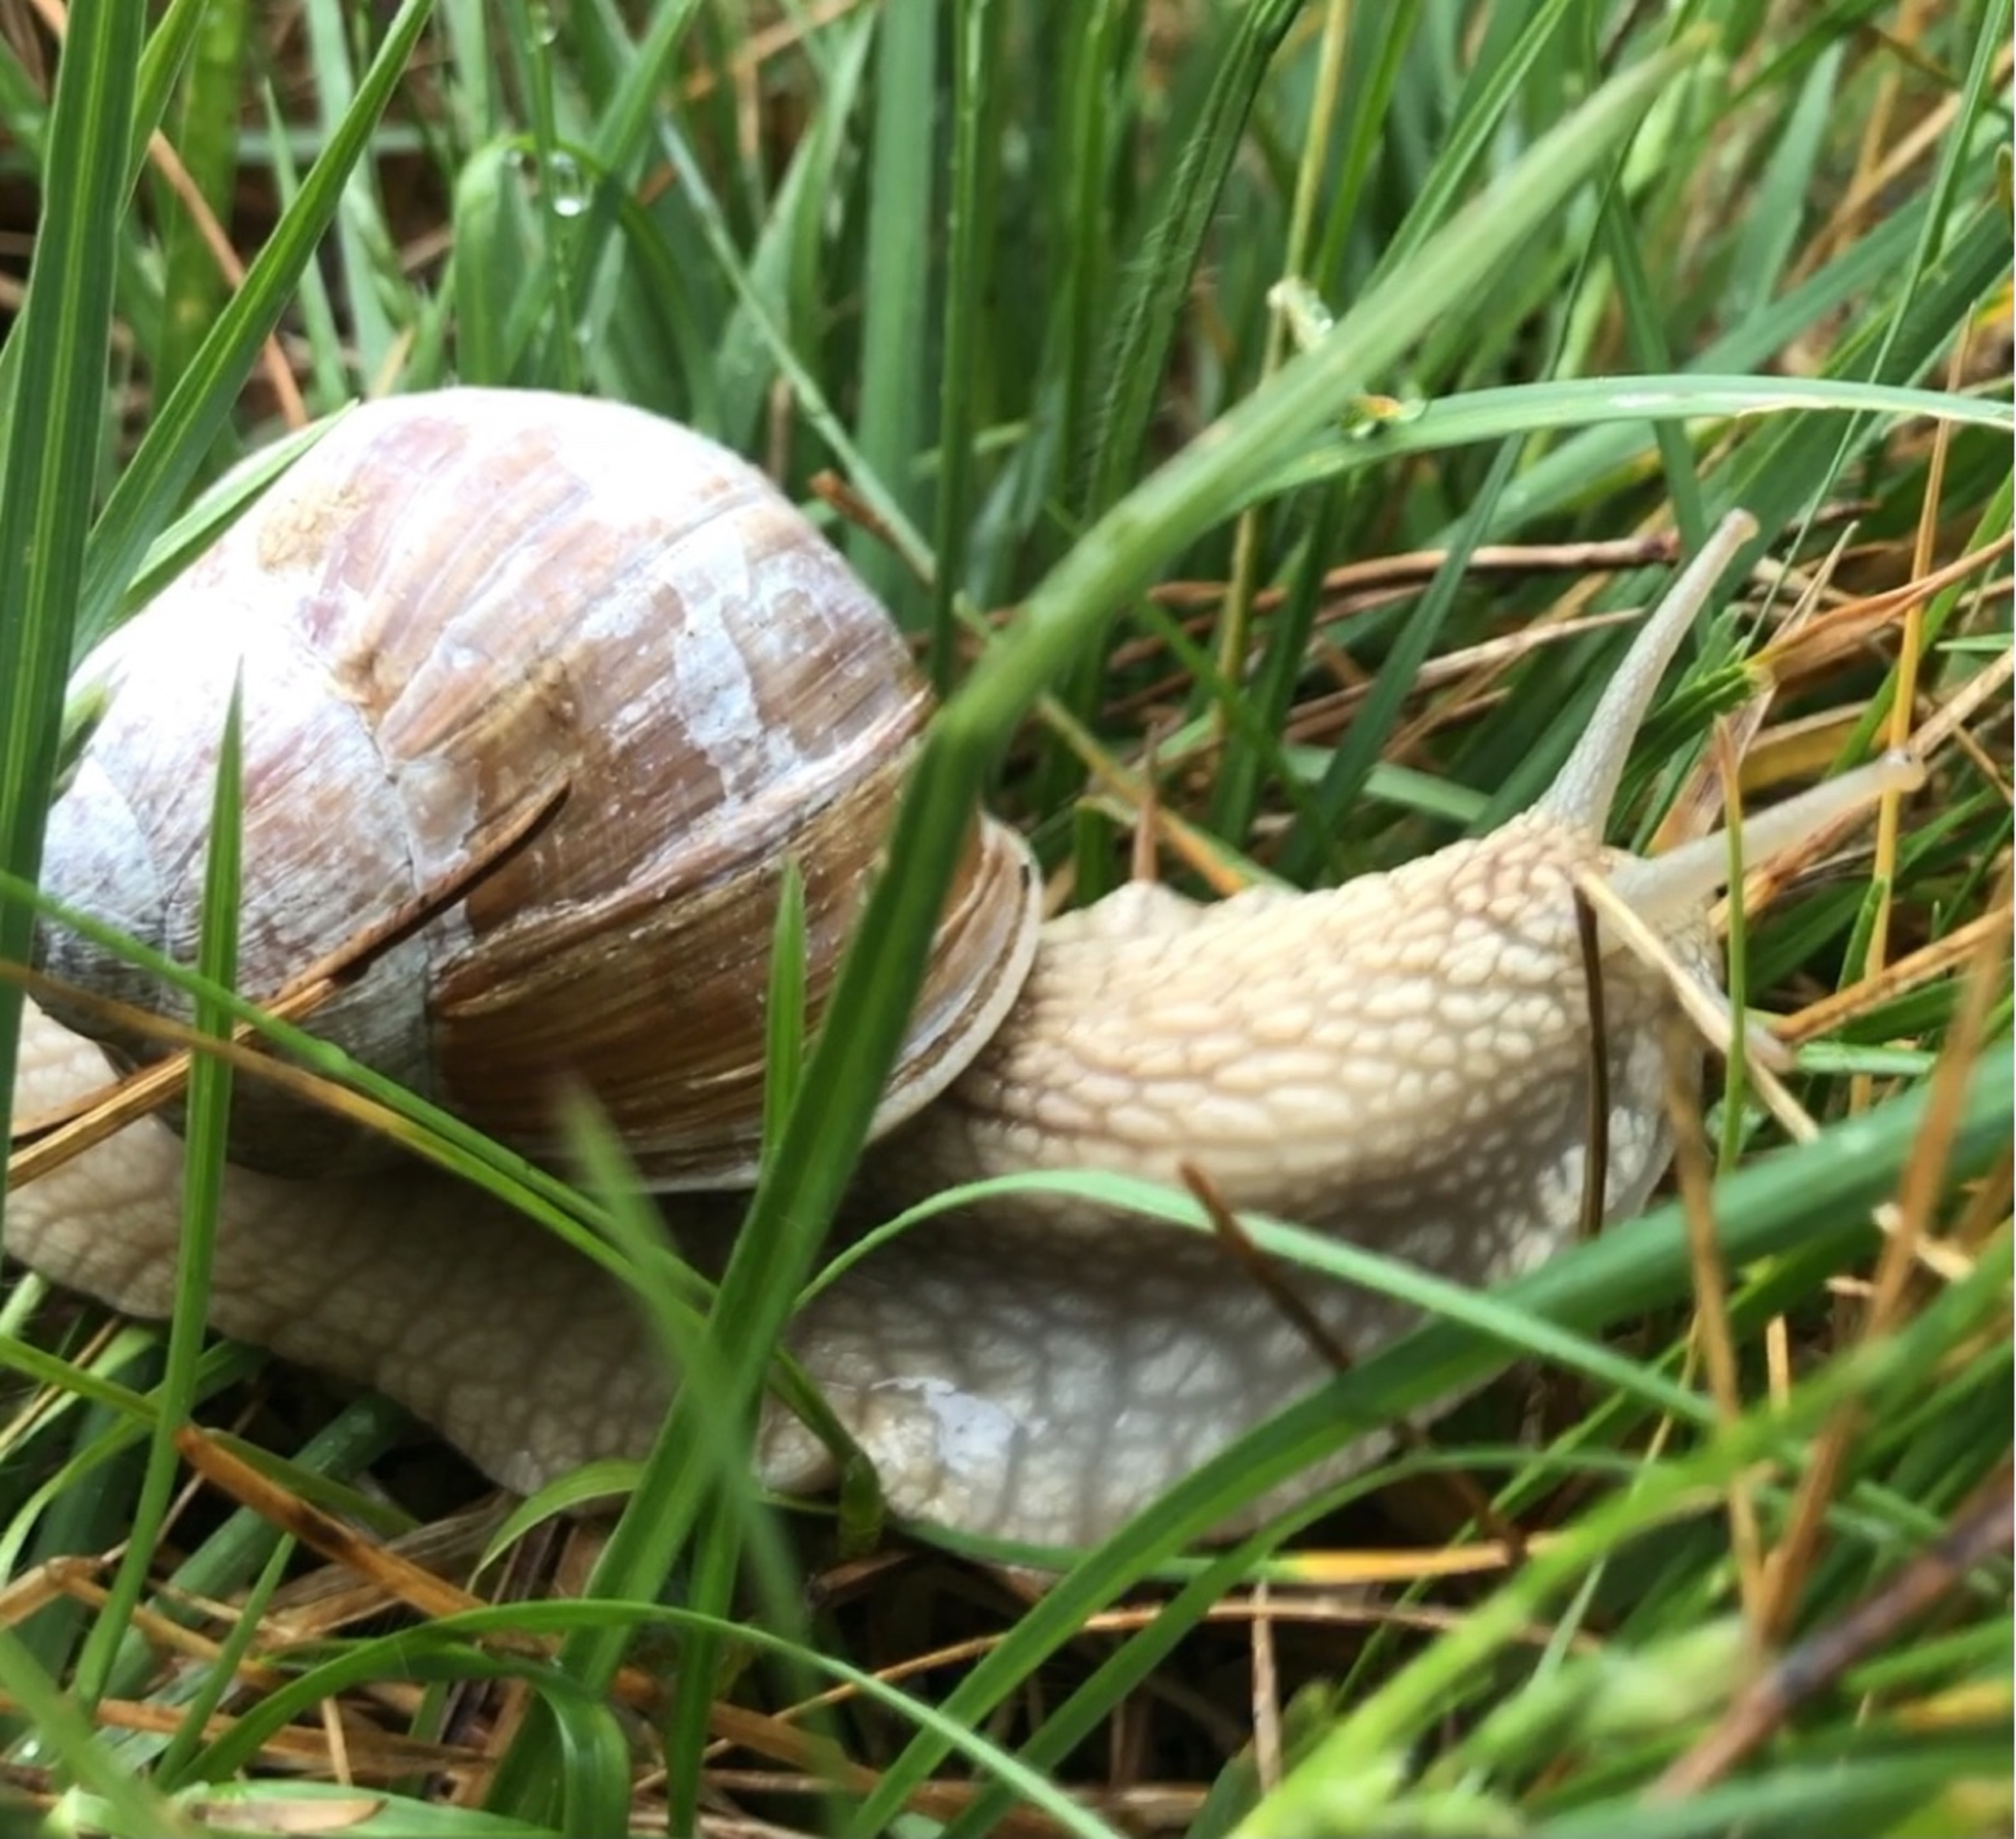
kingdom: Animalia
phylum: Mollusca
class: Gastropoda
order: Stylommatophora
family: Helicidae
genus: Helix
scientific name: Helix pomatia
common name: Vinbjergsnegl
